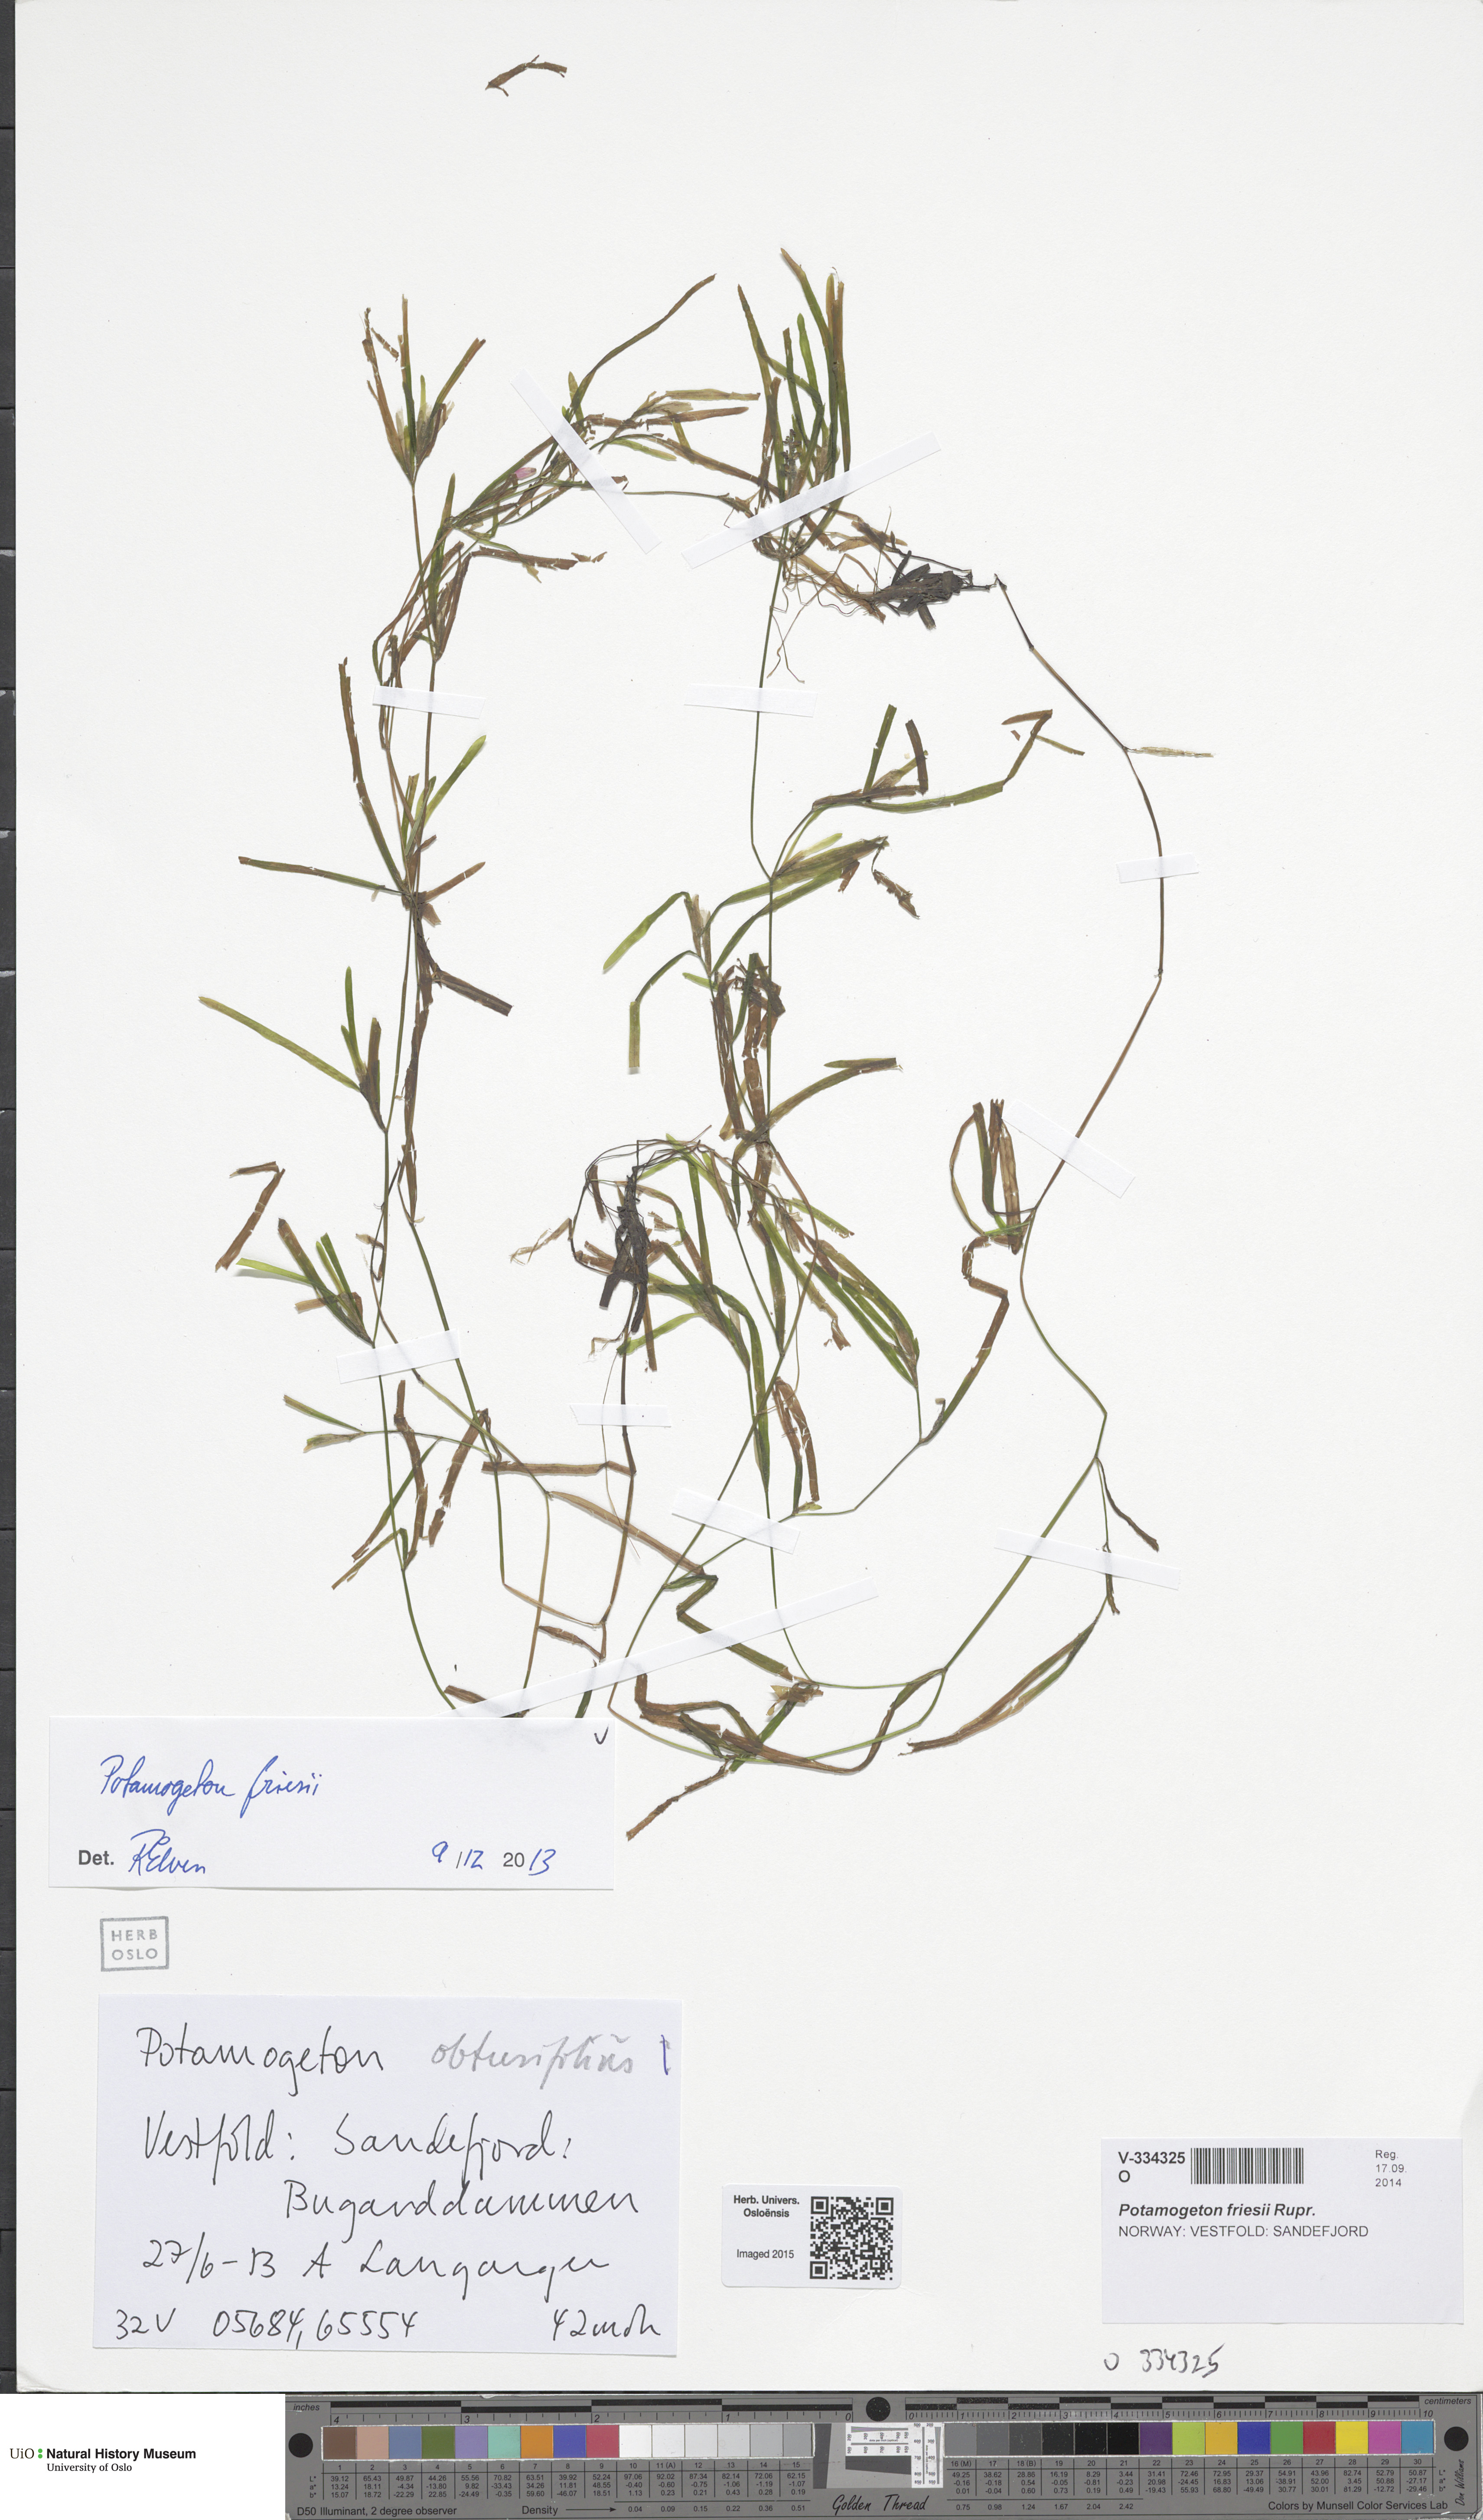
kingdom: Plantae
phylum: Tracheophyta
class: Liliopsida
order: Alismatales
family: Potamogetonaceae
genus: Potamogeton
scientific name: Potamogeton obtusifolius
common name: Blunt-leaved pondweed
